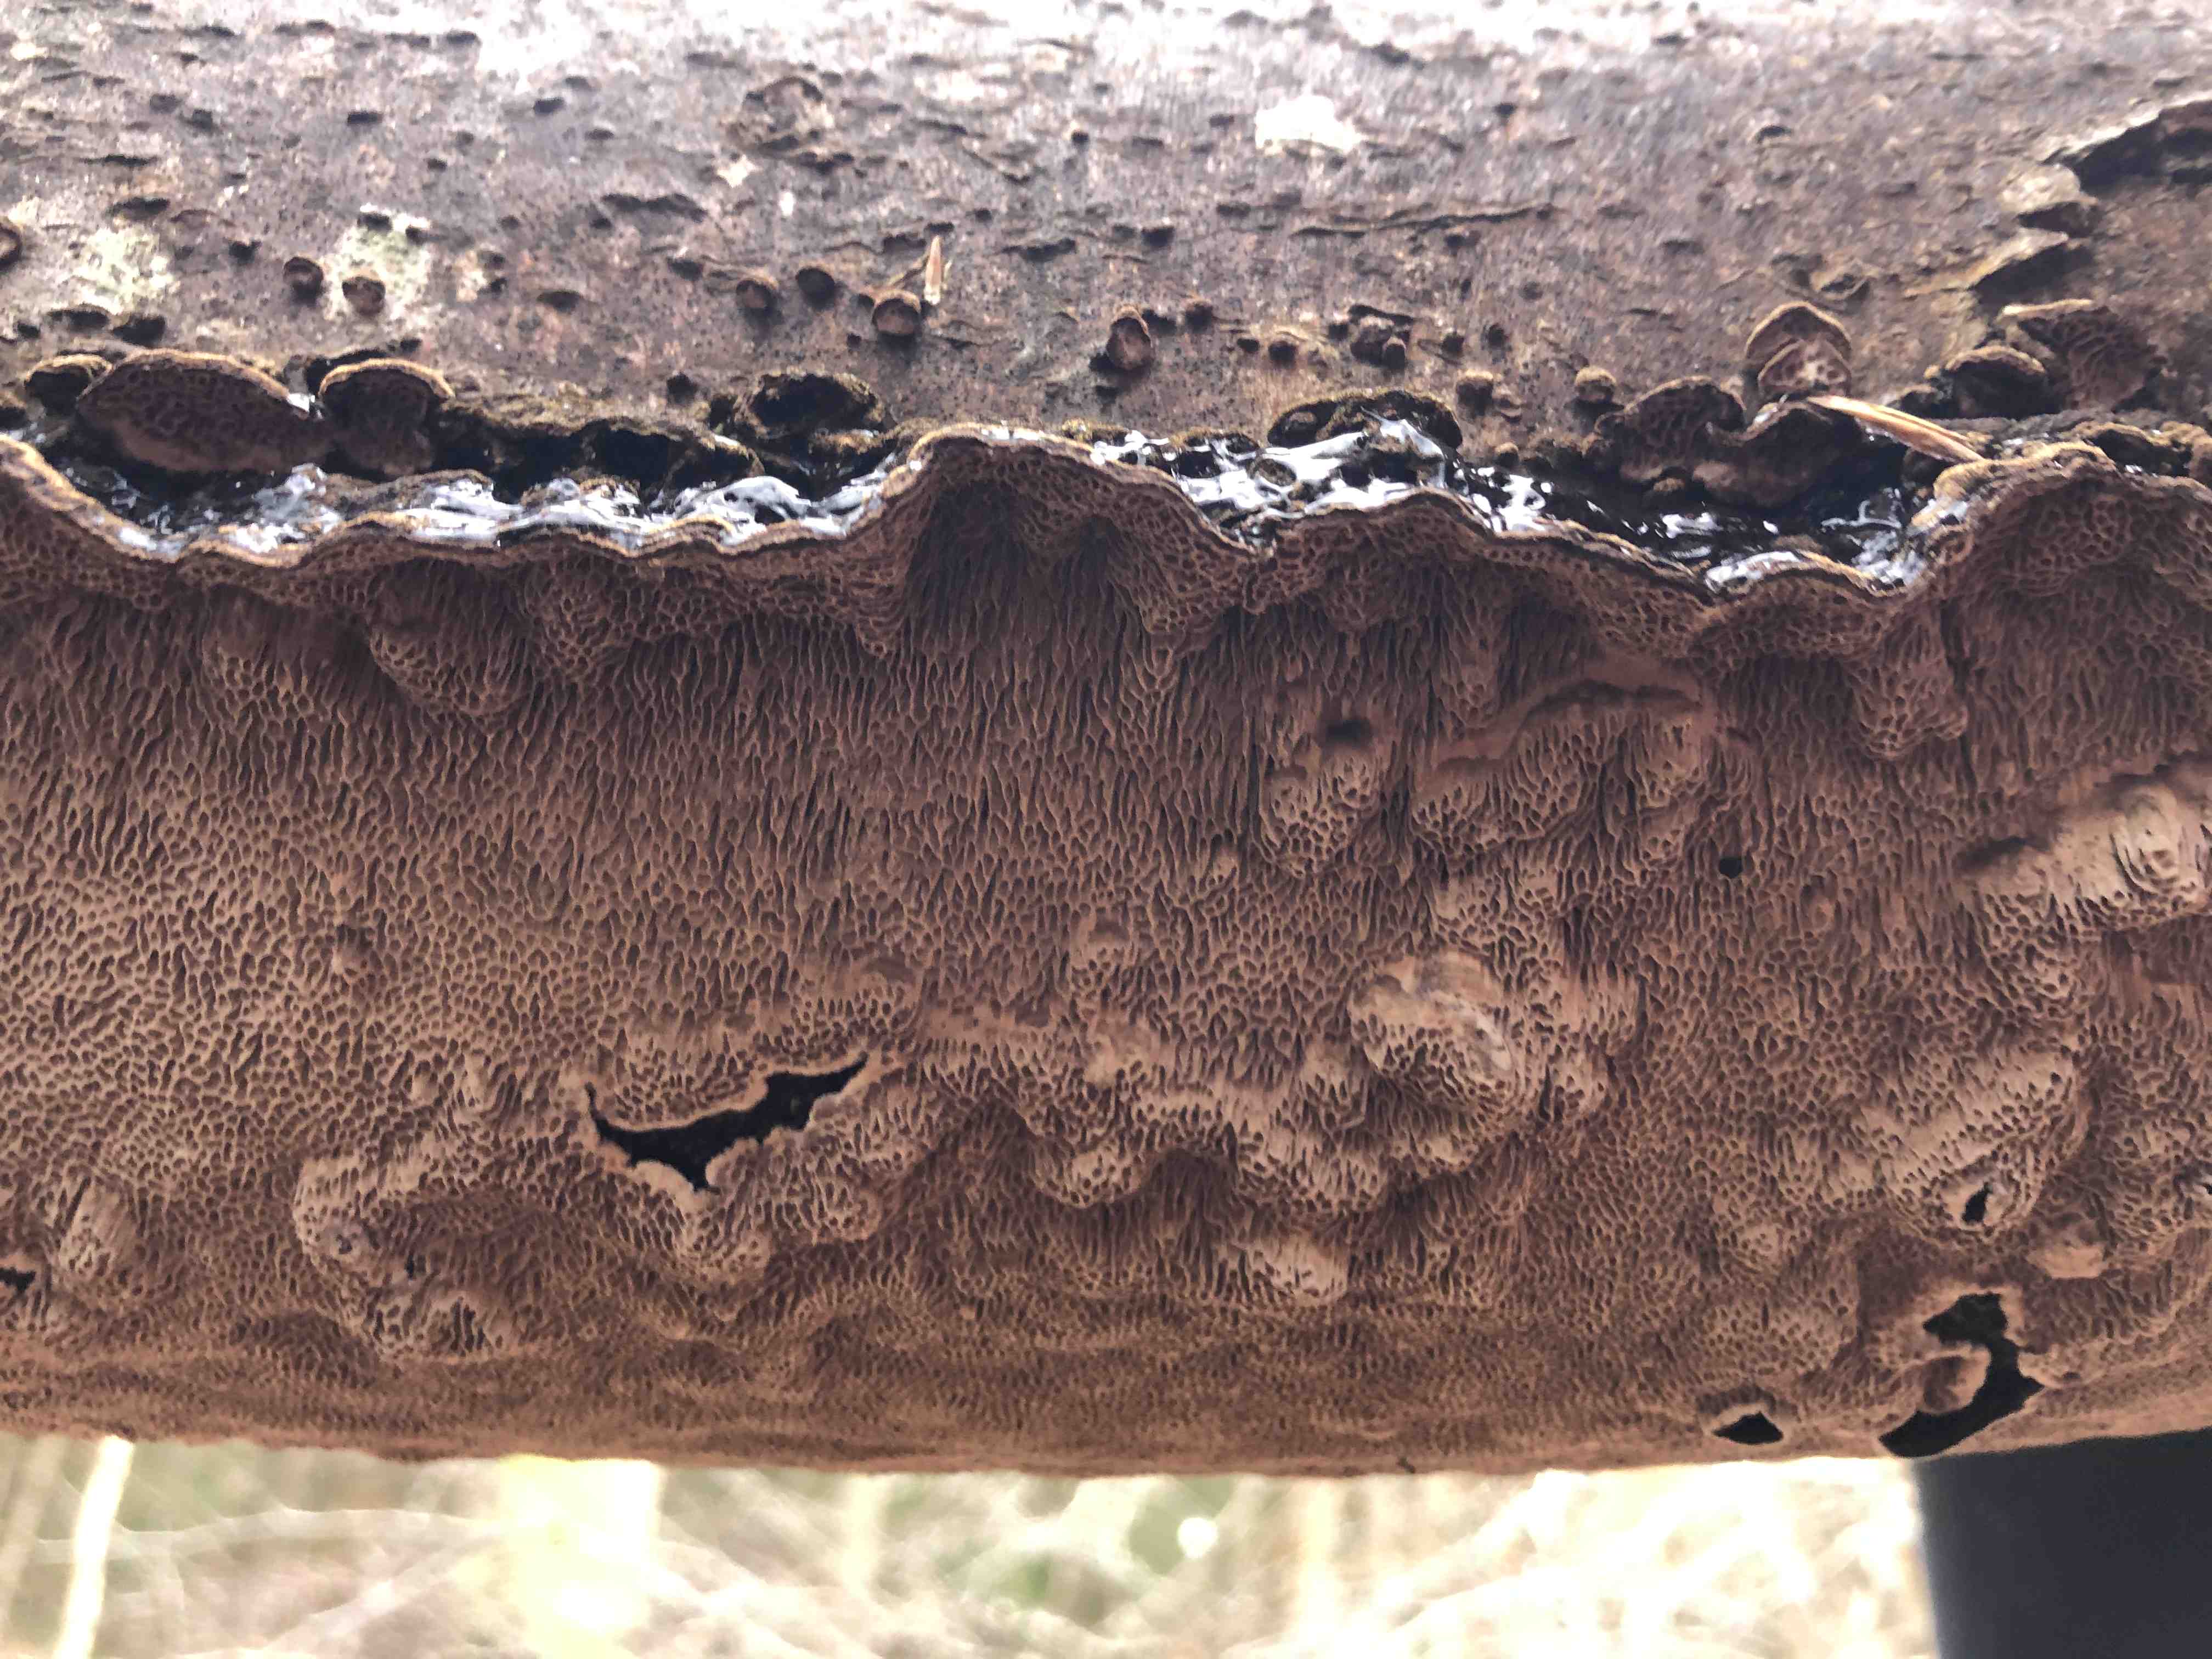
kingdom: Fungi
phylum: Basidiomycota
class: Agaricomycetes
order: Polyporales
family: Polyporaceae
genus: Podofomes
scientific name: Podofomes mollis
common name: blød begporesvamp
